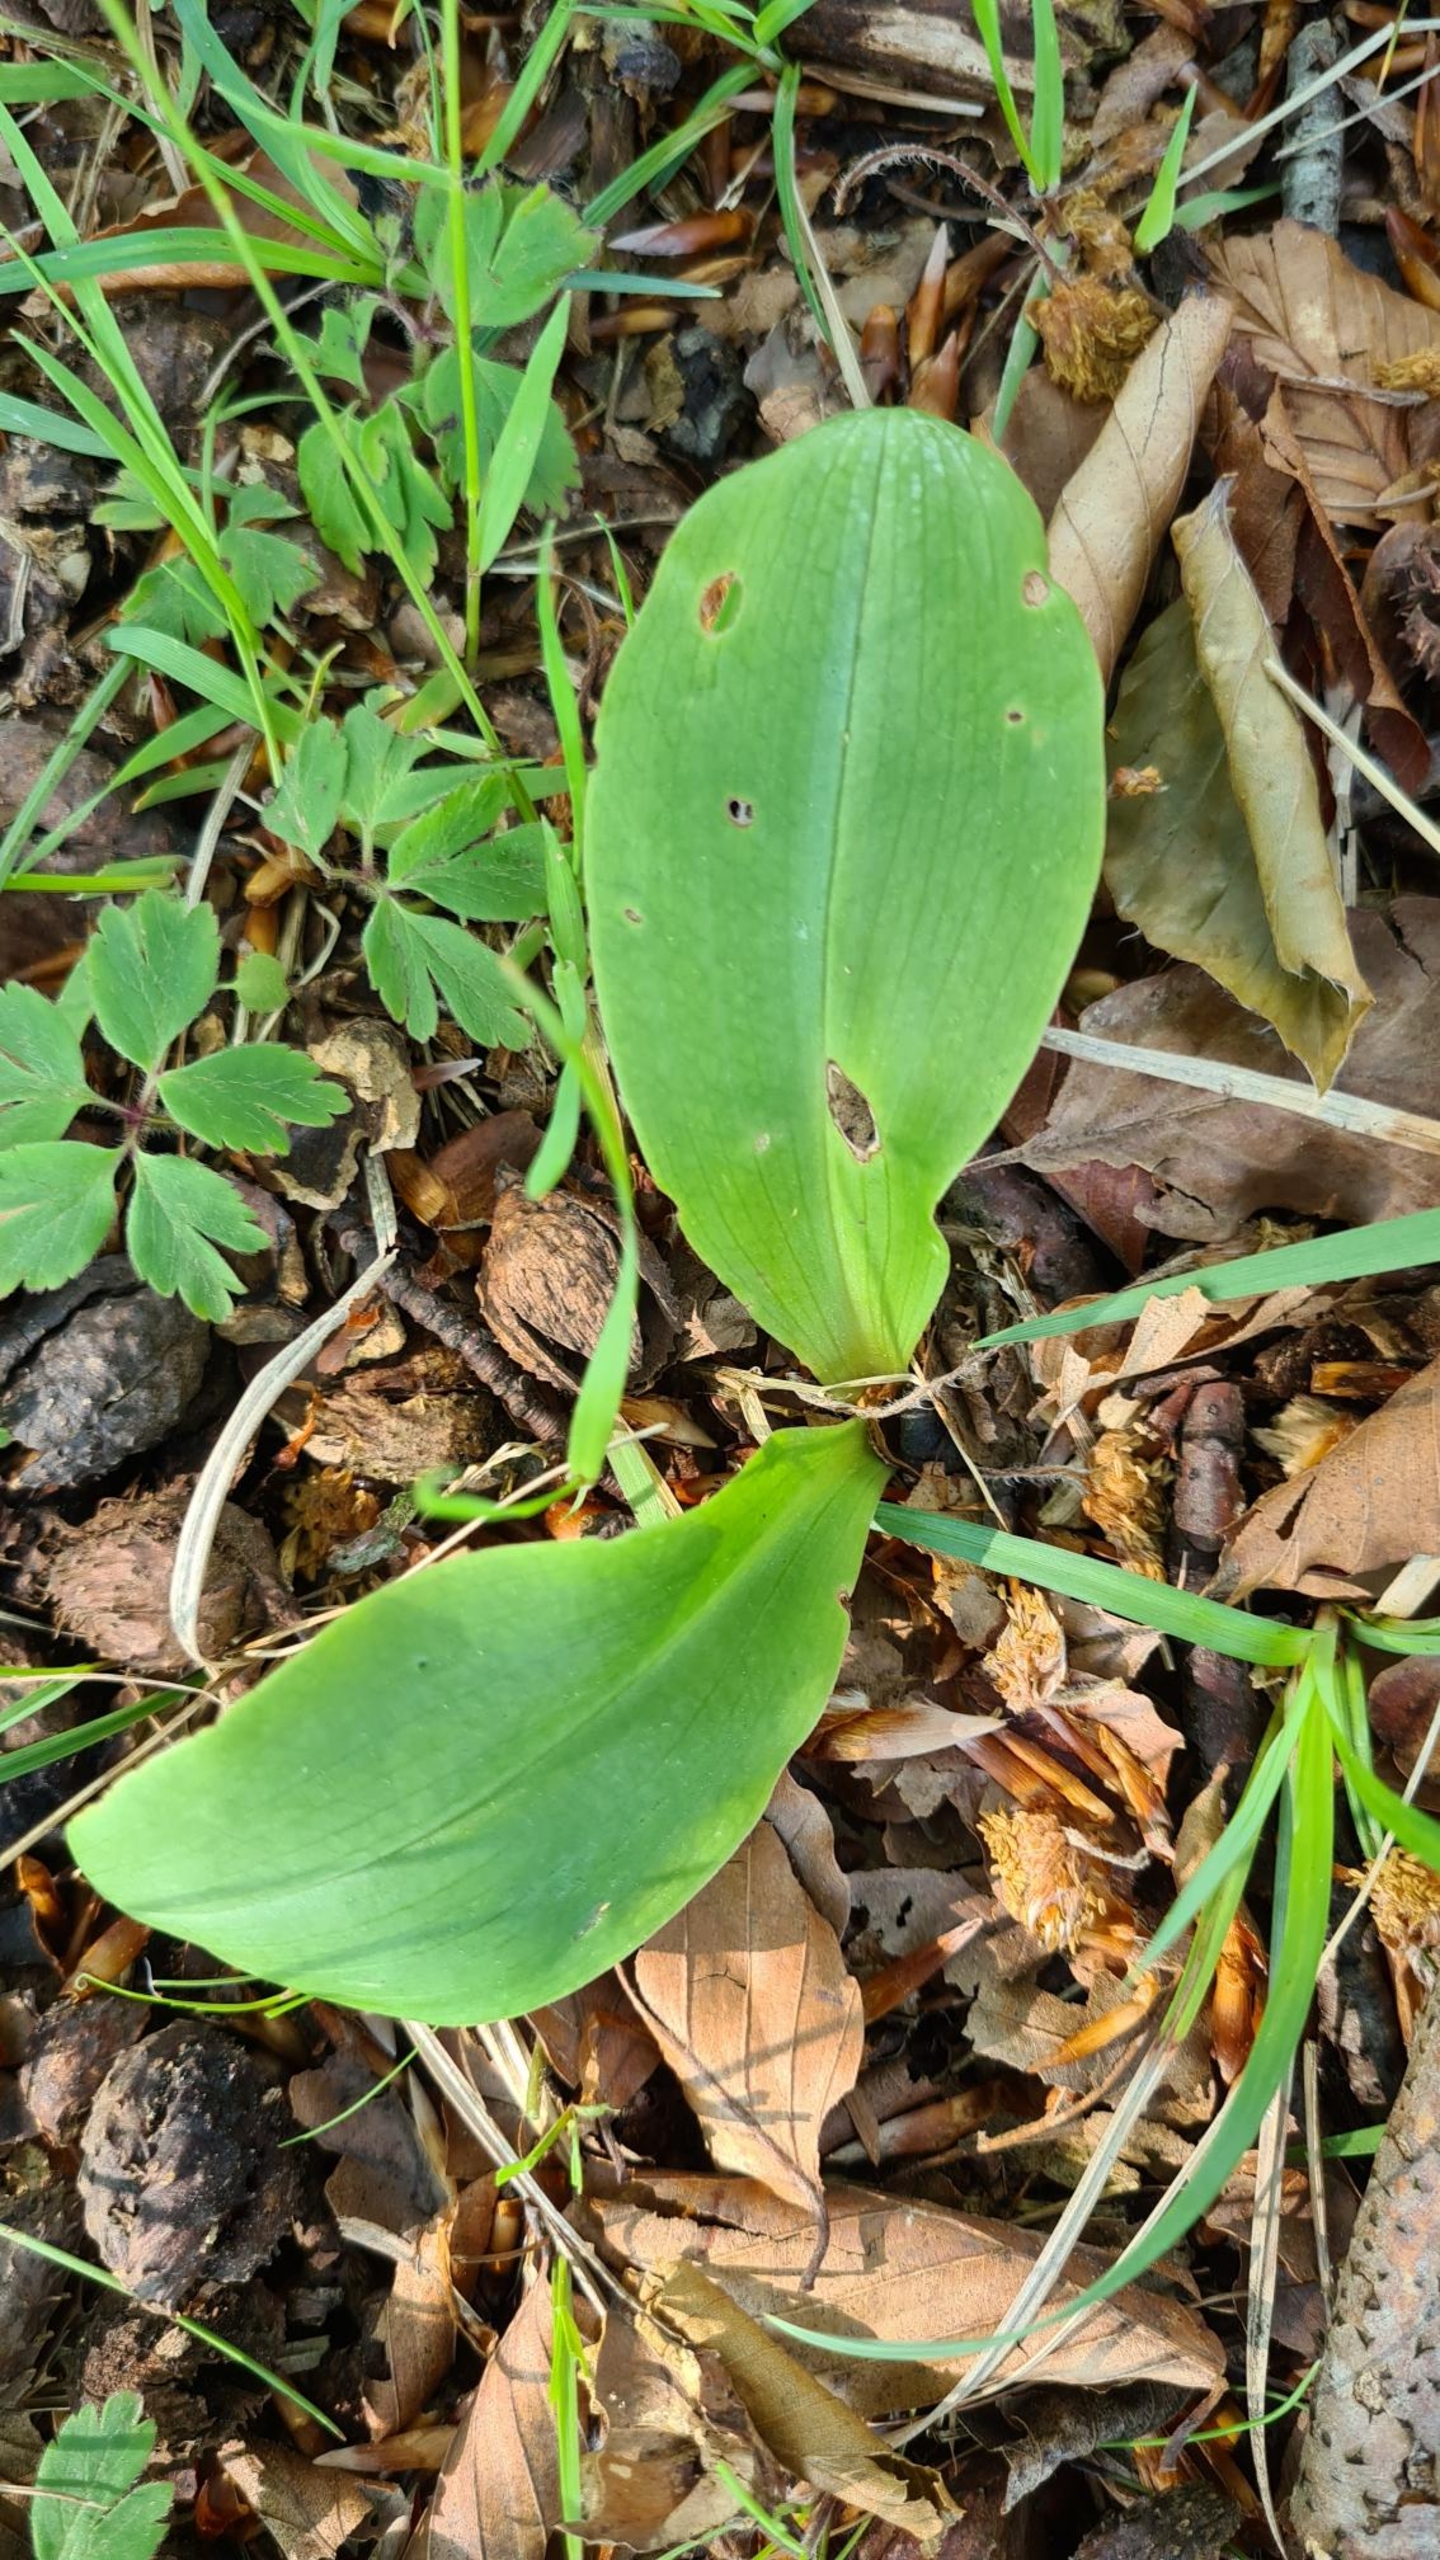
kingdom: Plantae
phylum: Tracheophyta
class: Liliopsida
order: Asparagales
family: Orchidaceae
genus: Platanthera
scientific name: Platanthera
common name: Gøgeliljeslægten
